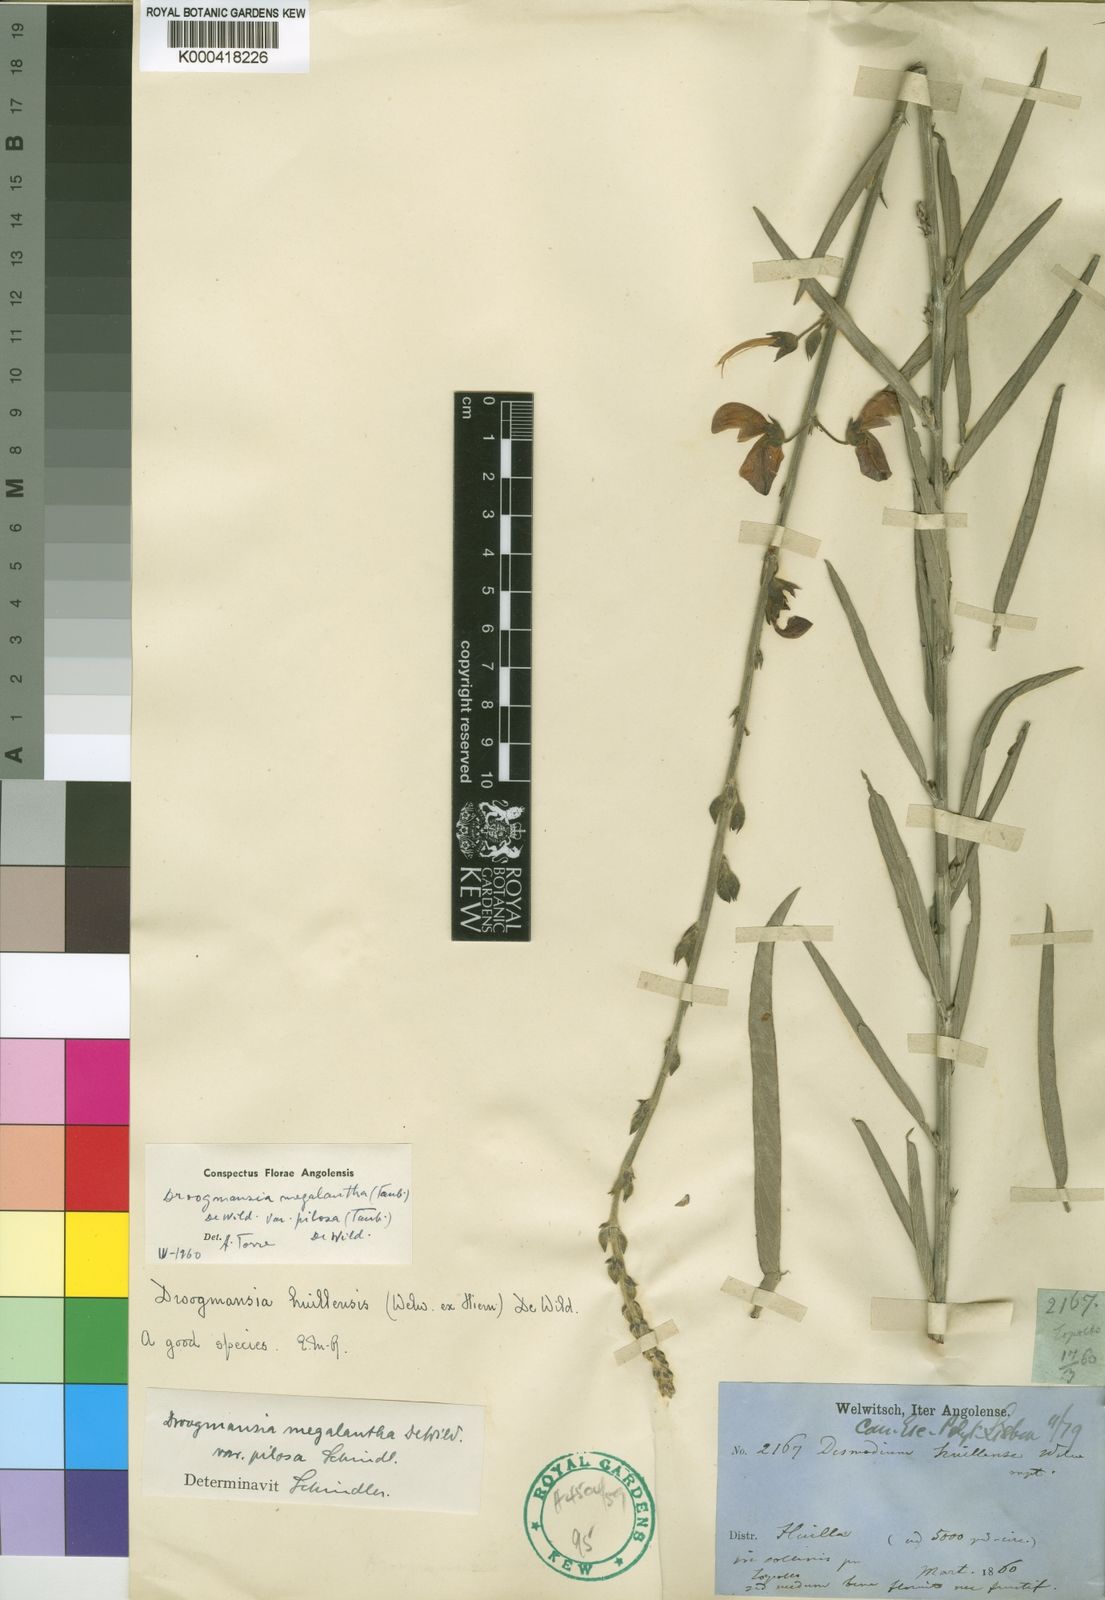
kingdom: Plantae
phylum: Tracheophyta
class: Magnoliopsida
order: Fabales
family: Fabaceae
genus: Droogmansia
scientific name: Droogmansia megalantha
